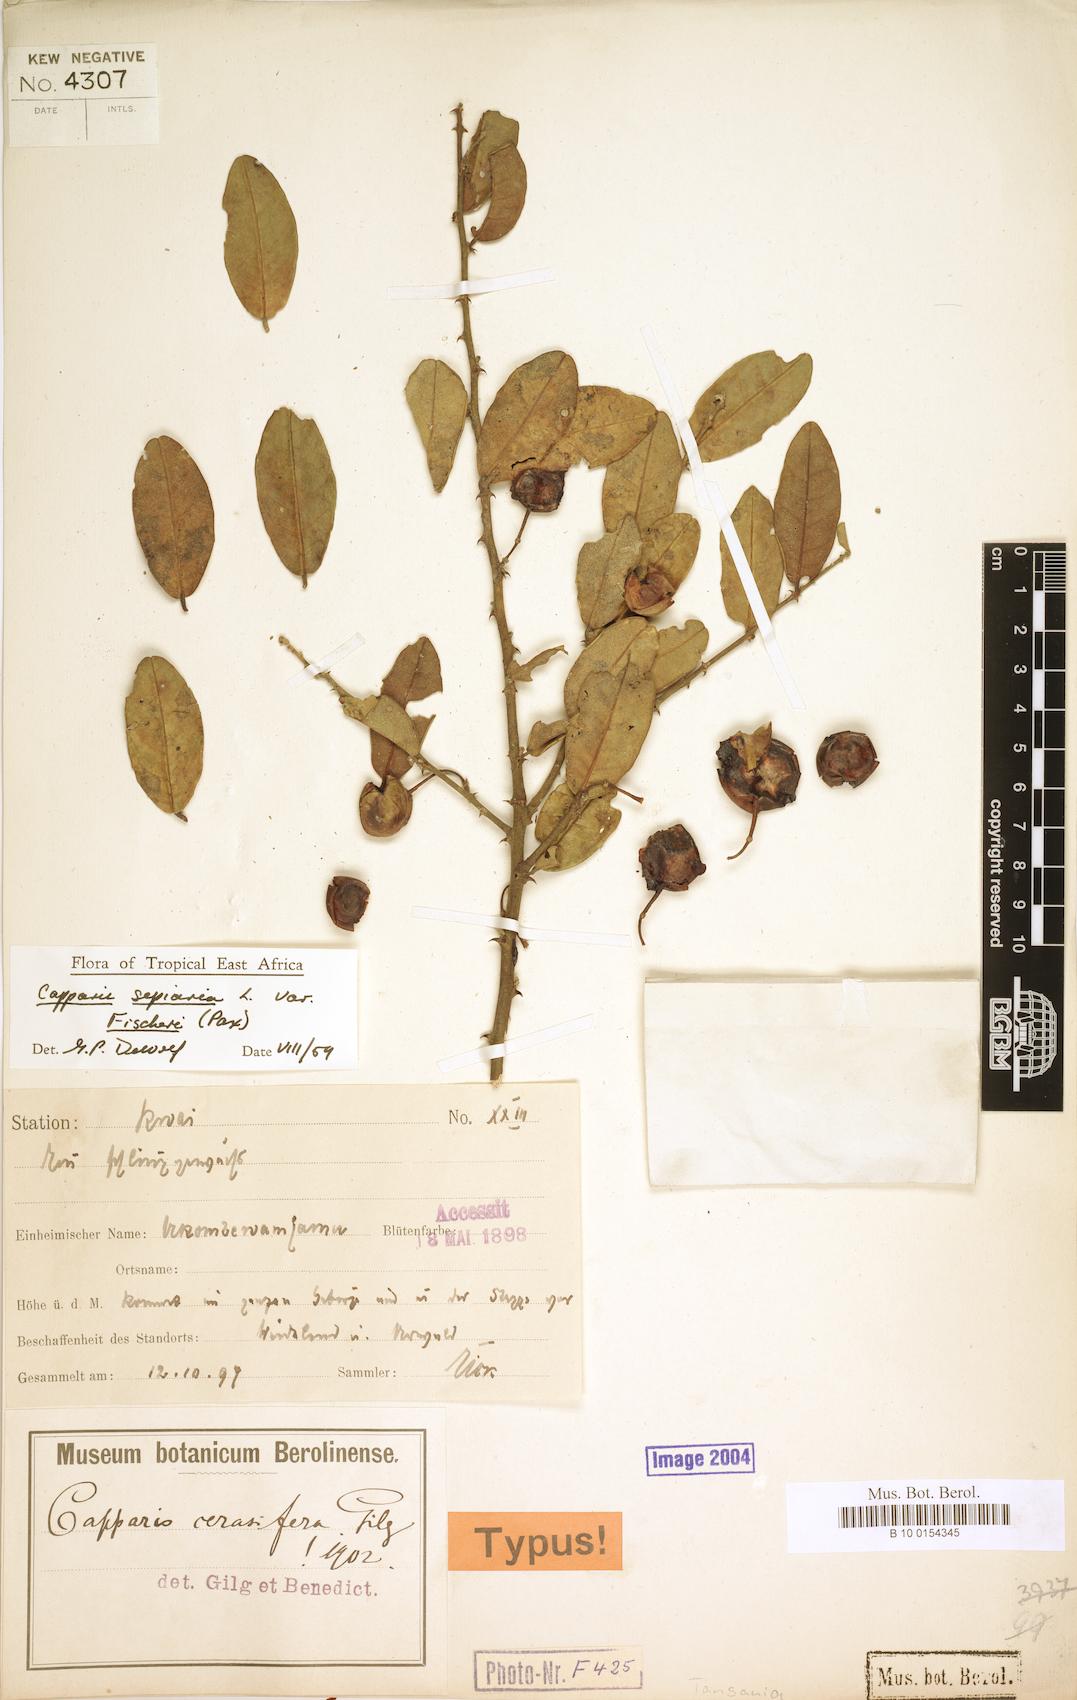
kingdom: Plantae
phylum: Tracheophyta
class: Magnoliopsida
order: Brassicales
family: Capparaceae
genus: Capparis
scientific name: Capparis sepiaria
